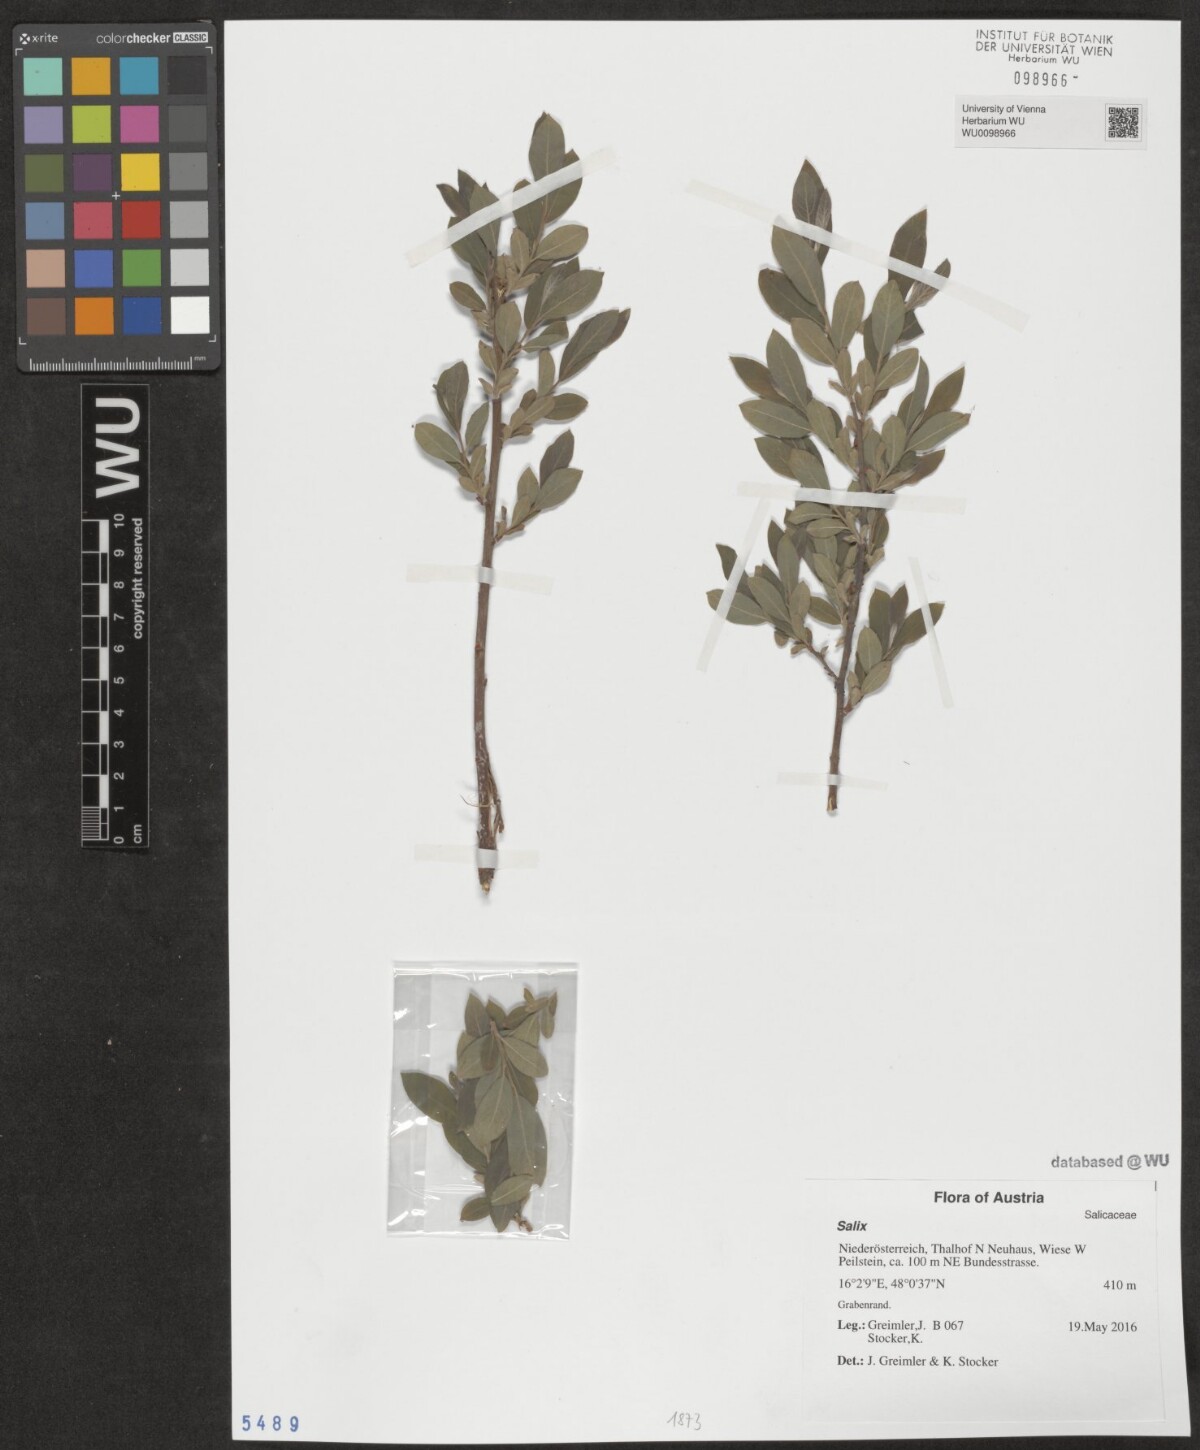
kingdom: Plantae
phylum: Tracheophyta
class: Magnoliopsida
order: Malpighiales
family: Salicaceae
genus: Salix
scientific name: Salix
